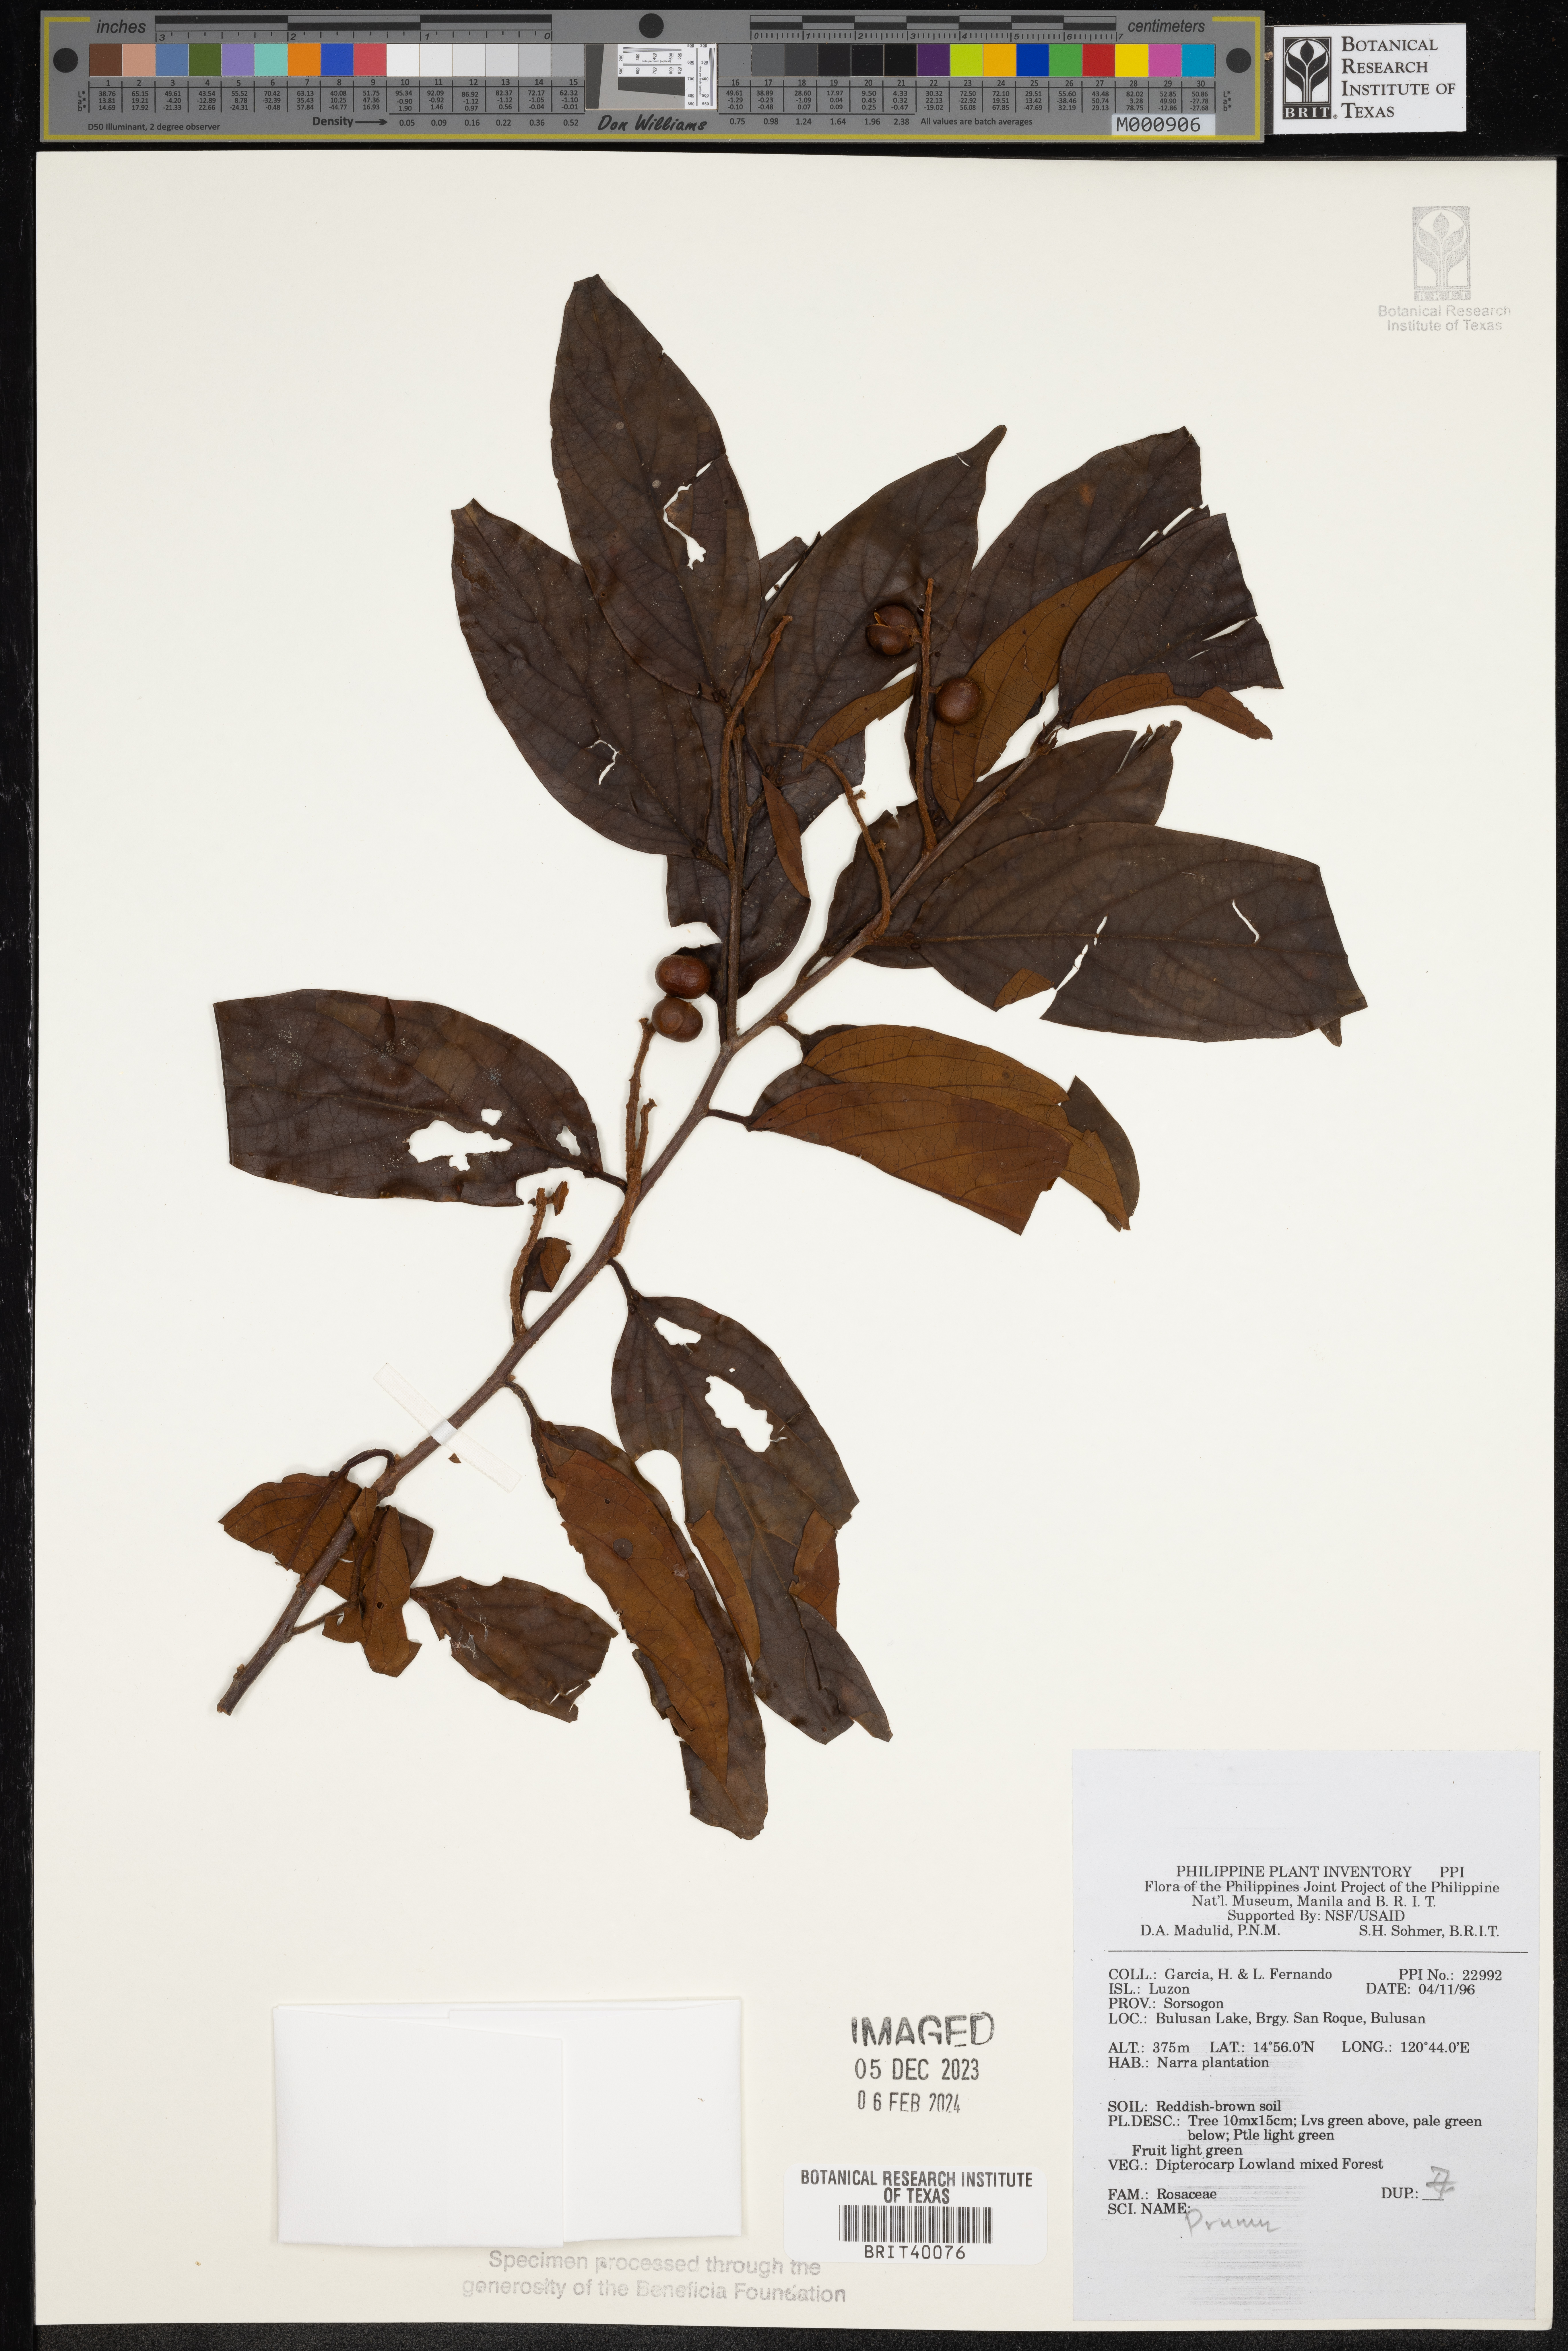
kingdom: Plantae
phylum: Tracheophyta
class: Magnoliopsida
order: Rosales
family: Rosaceae
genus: Prunus
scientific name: Prunus
